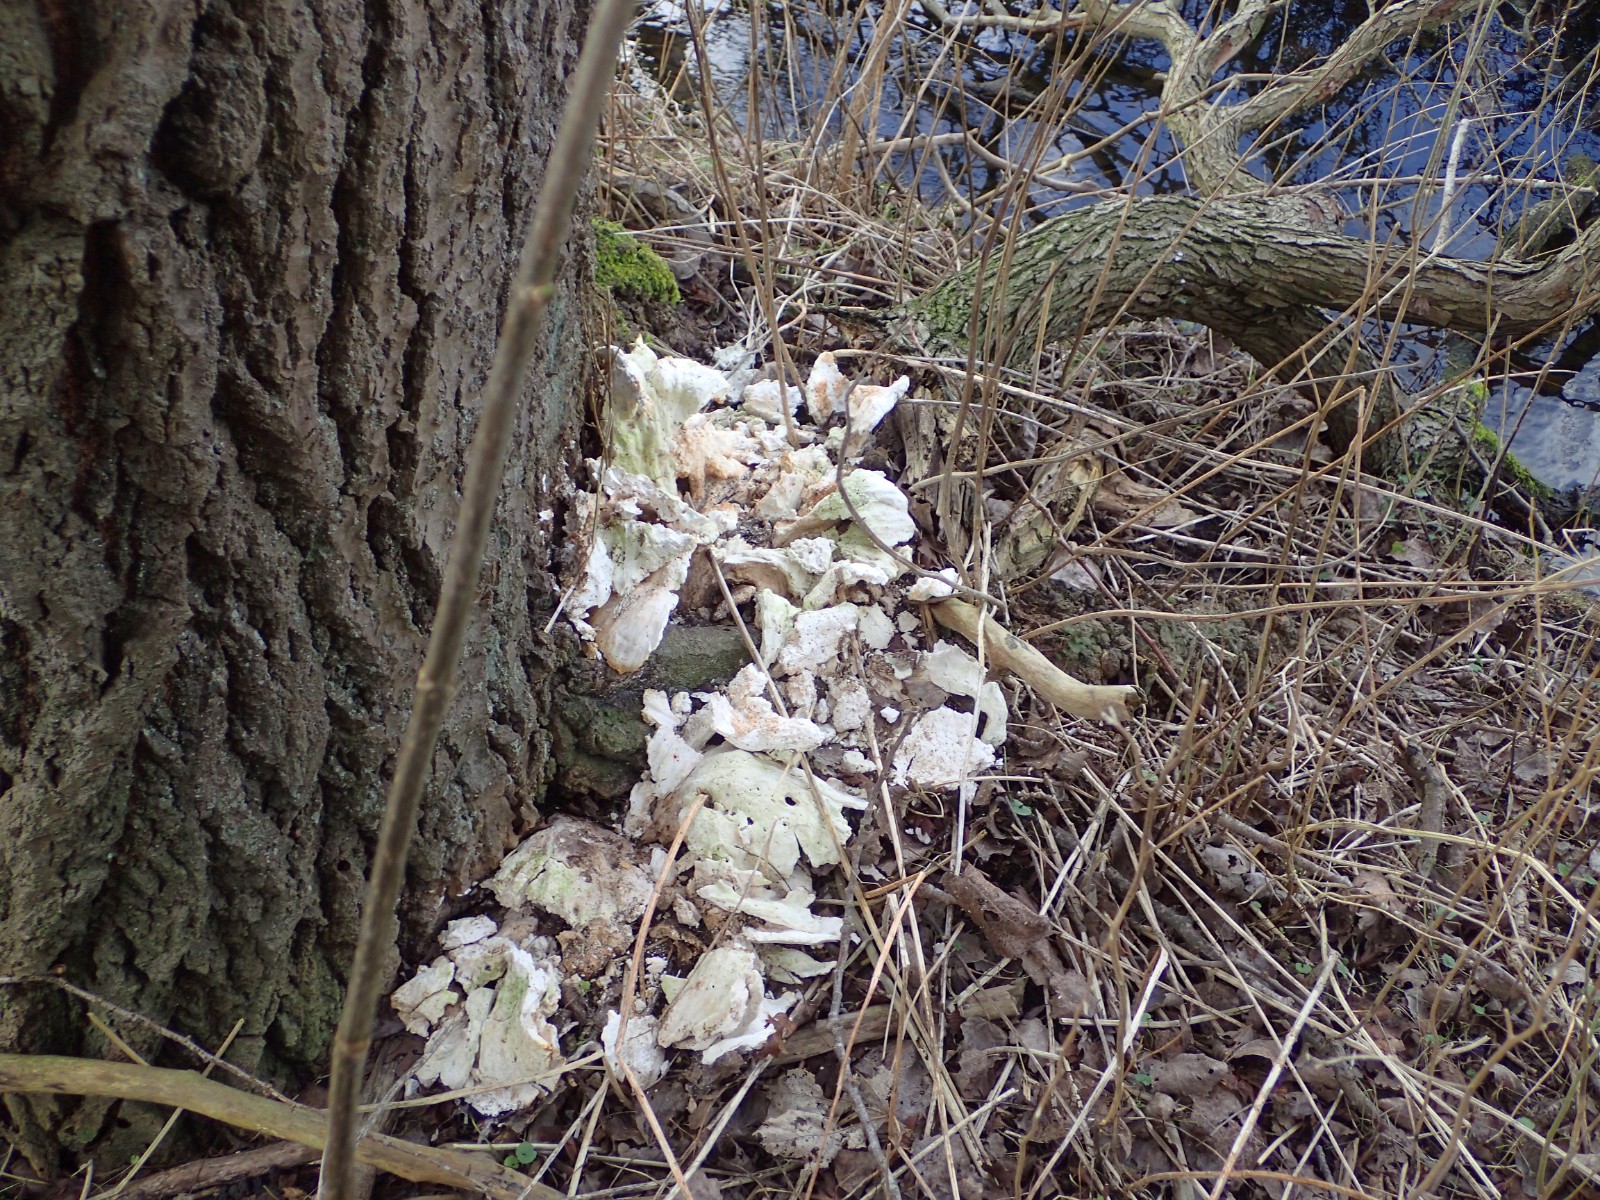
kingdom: Fungi
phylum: Basidiomycota
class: Agaricomycetes
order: Polyporales
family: Laetiporaceae
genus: Laetiporus
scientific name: Laetiporus sulphureus
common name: svovlporesvamp
